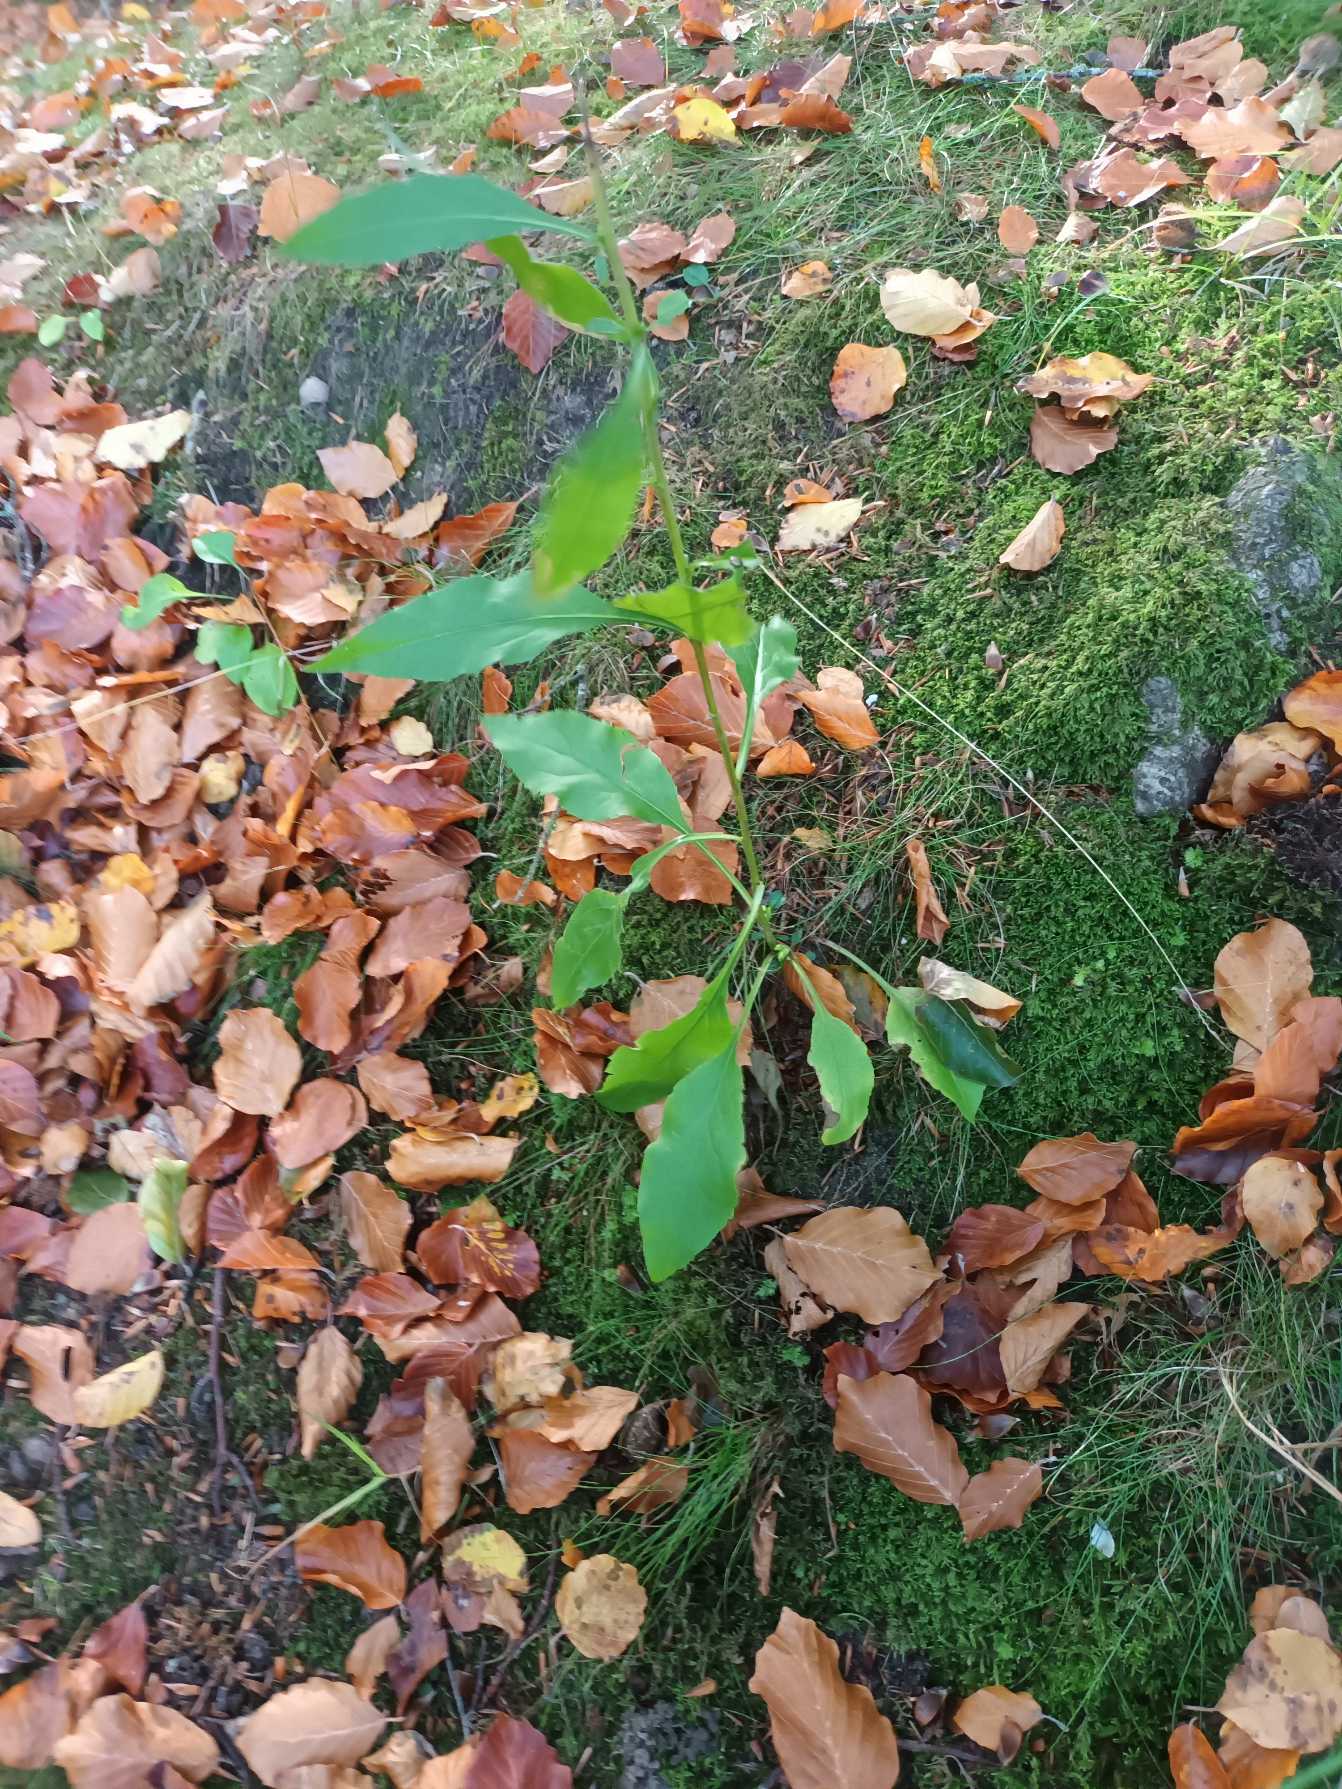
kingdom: Plantae
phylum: Tracheophyta
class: Magnoliopsida
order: Asterales
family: Asteraceae
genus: Solidago
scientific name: Solidago virgaurea
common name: Almindelig gyldenris
